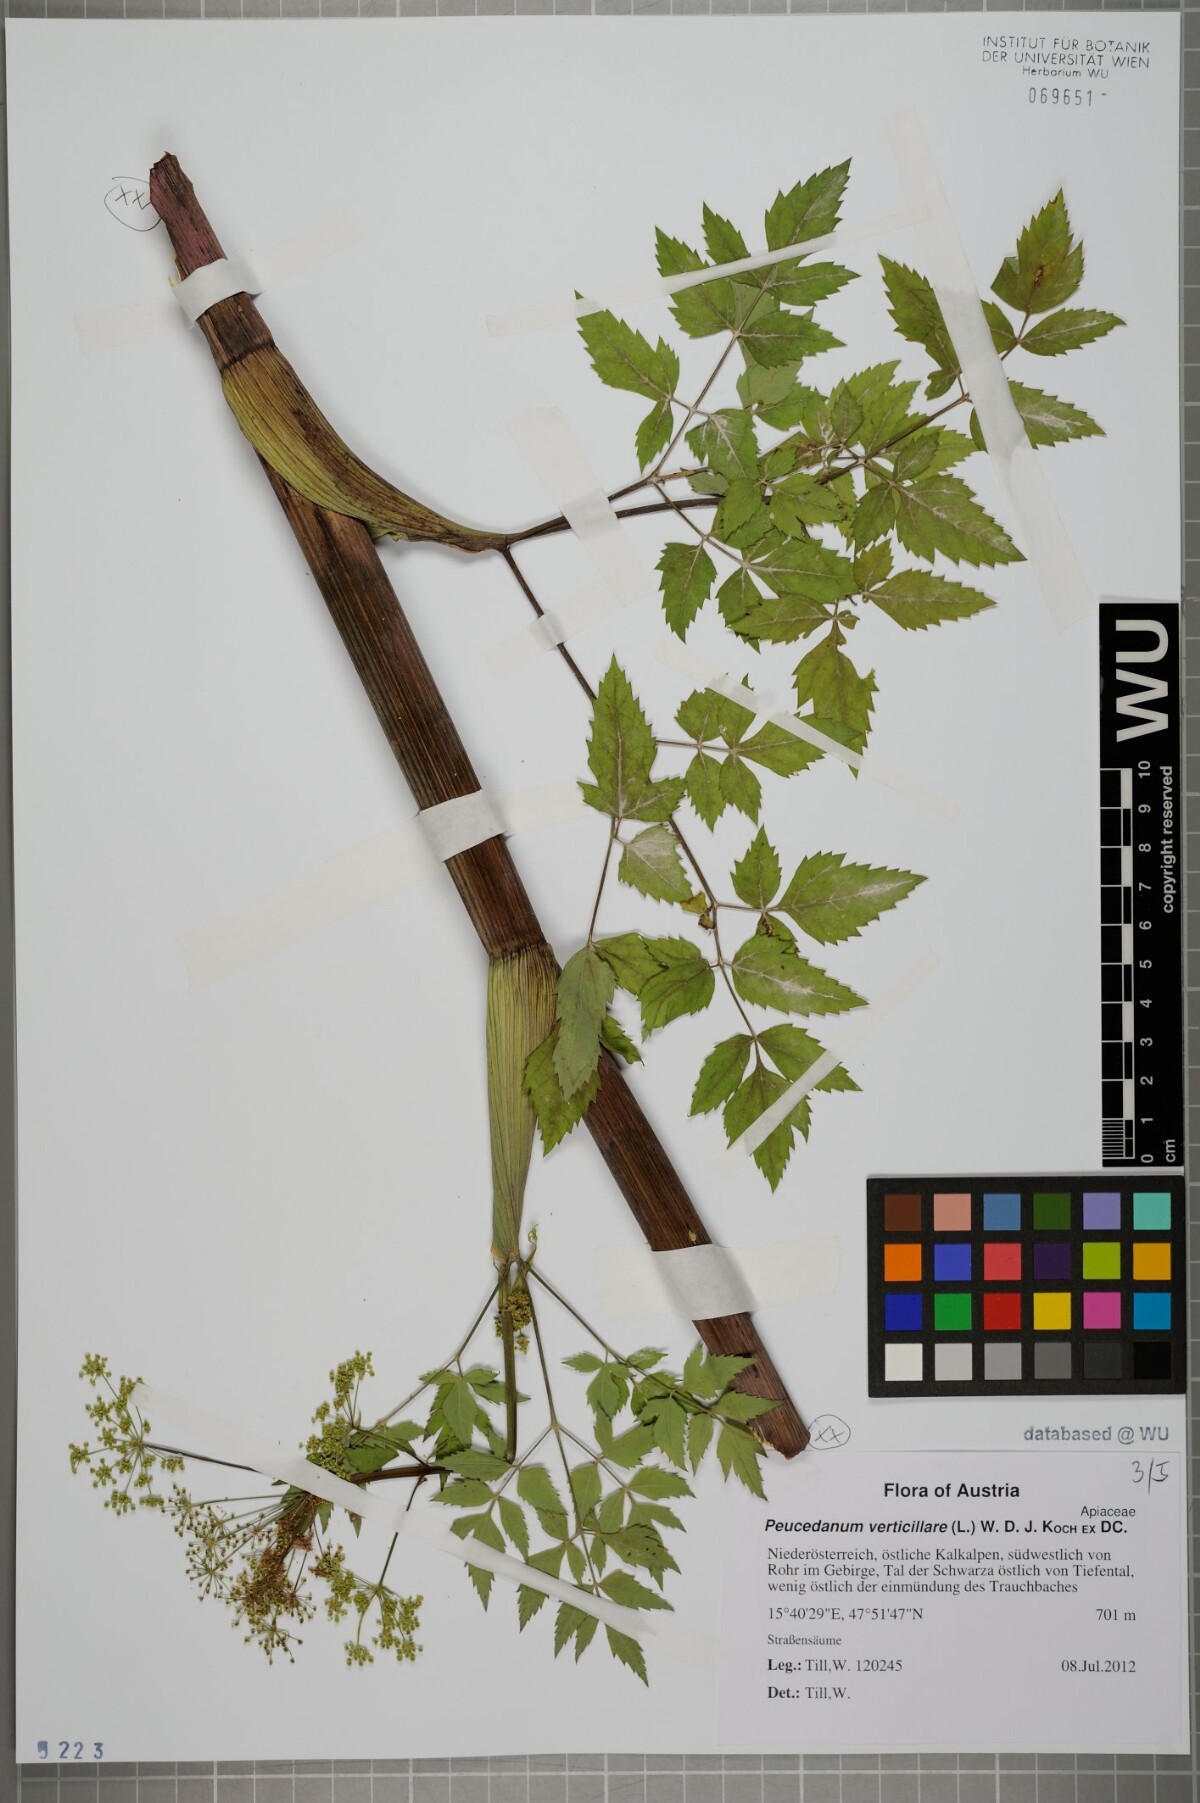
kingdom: Plantae
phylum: Tracheophyta
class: Magnoliopsida
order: Apiales
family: Apiaceae
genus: Tommasinia
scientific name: Tommasinia altissima
